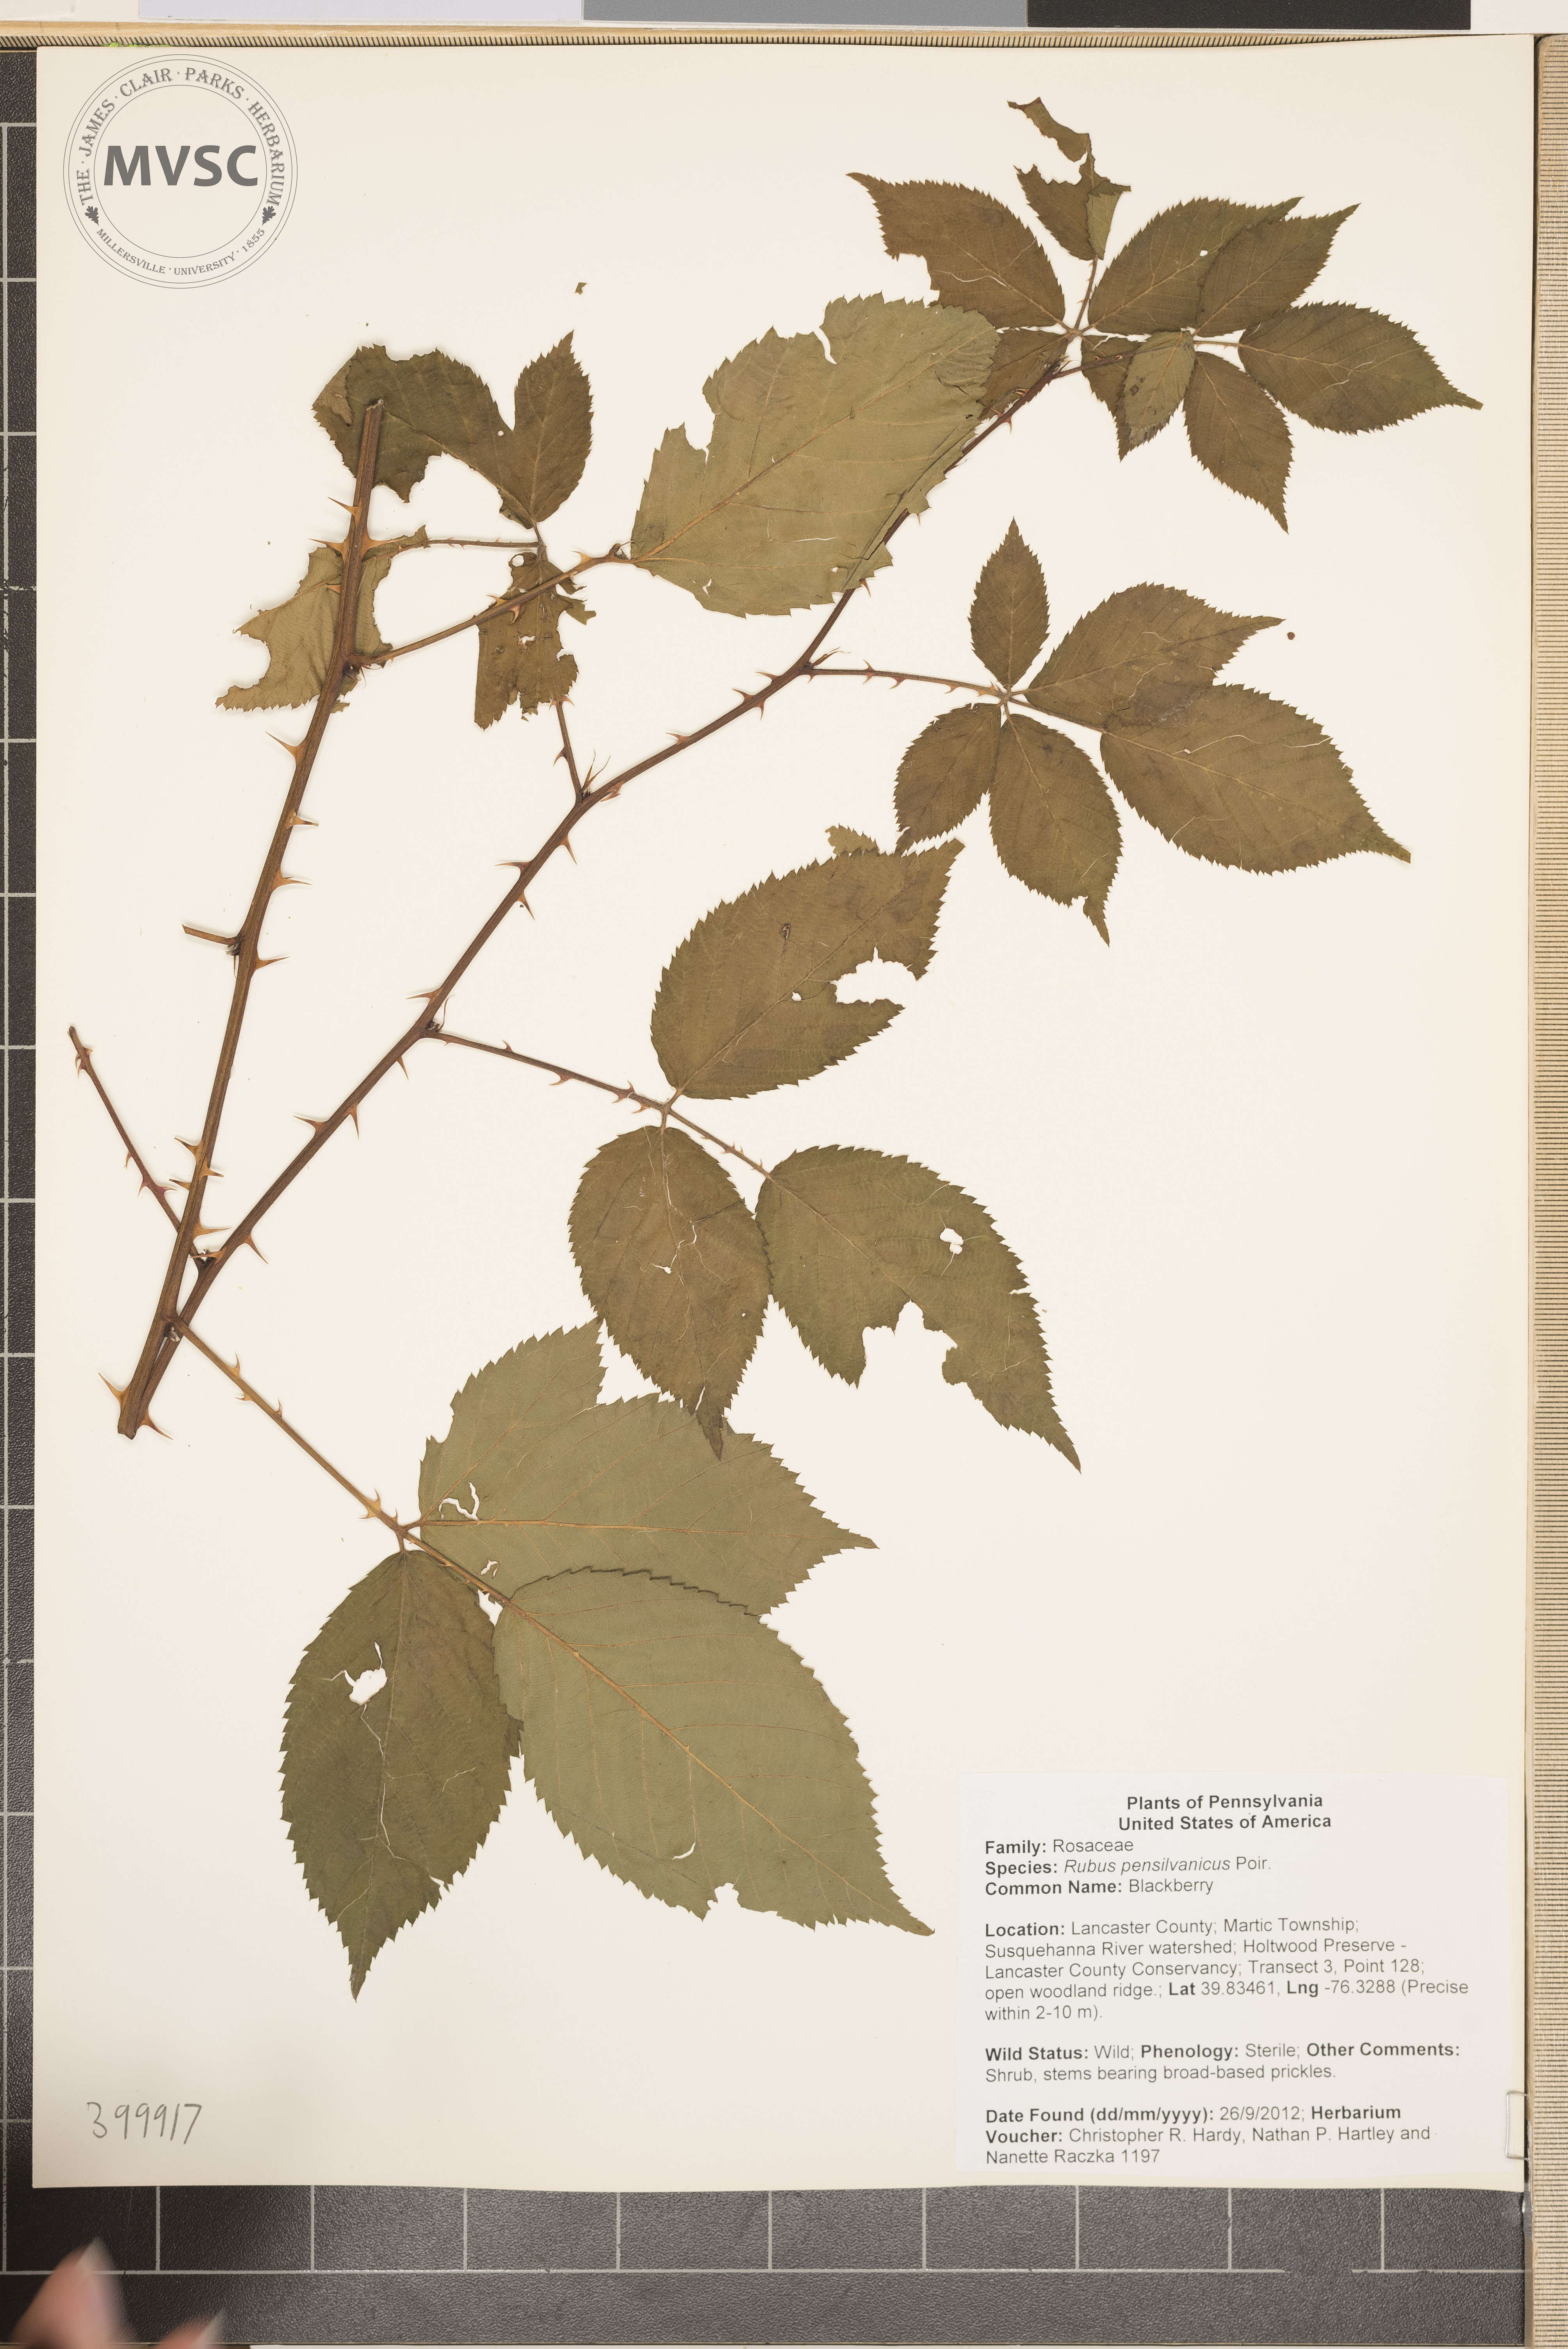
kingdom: Plantae
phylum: Tracheophyta
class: Magnoliopsida
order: Rosales
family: Rosaceae
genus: Rubus
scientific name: Rubus pensilvanicus
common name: Blackberry
